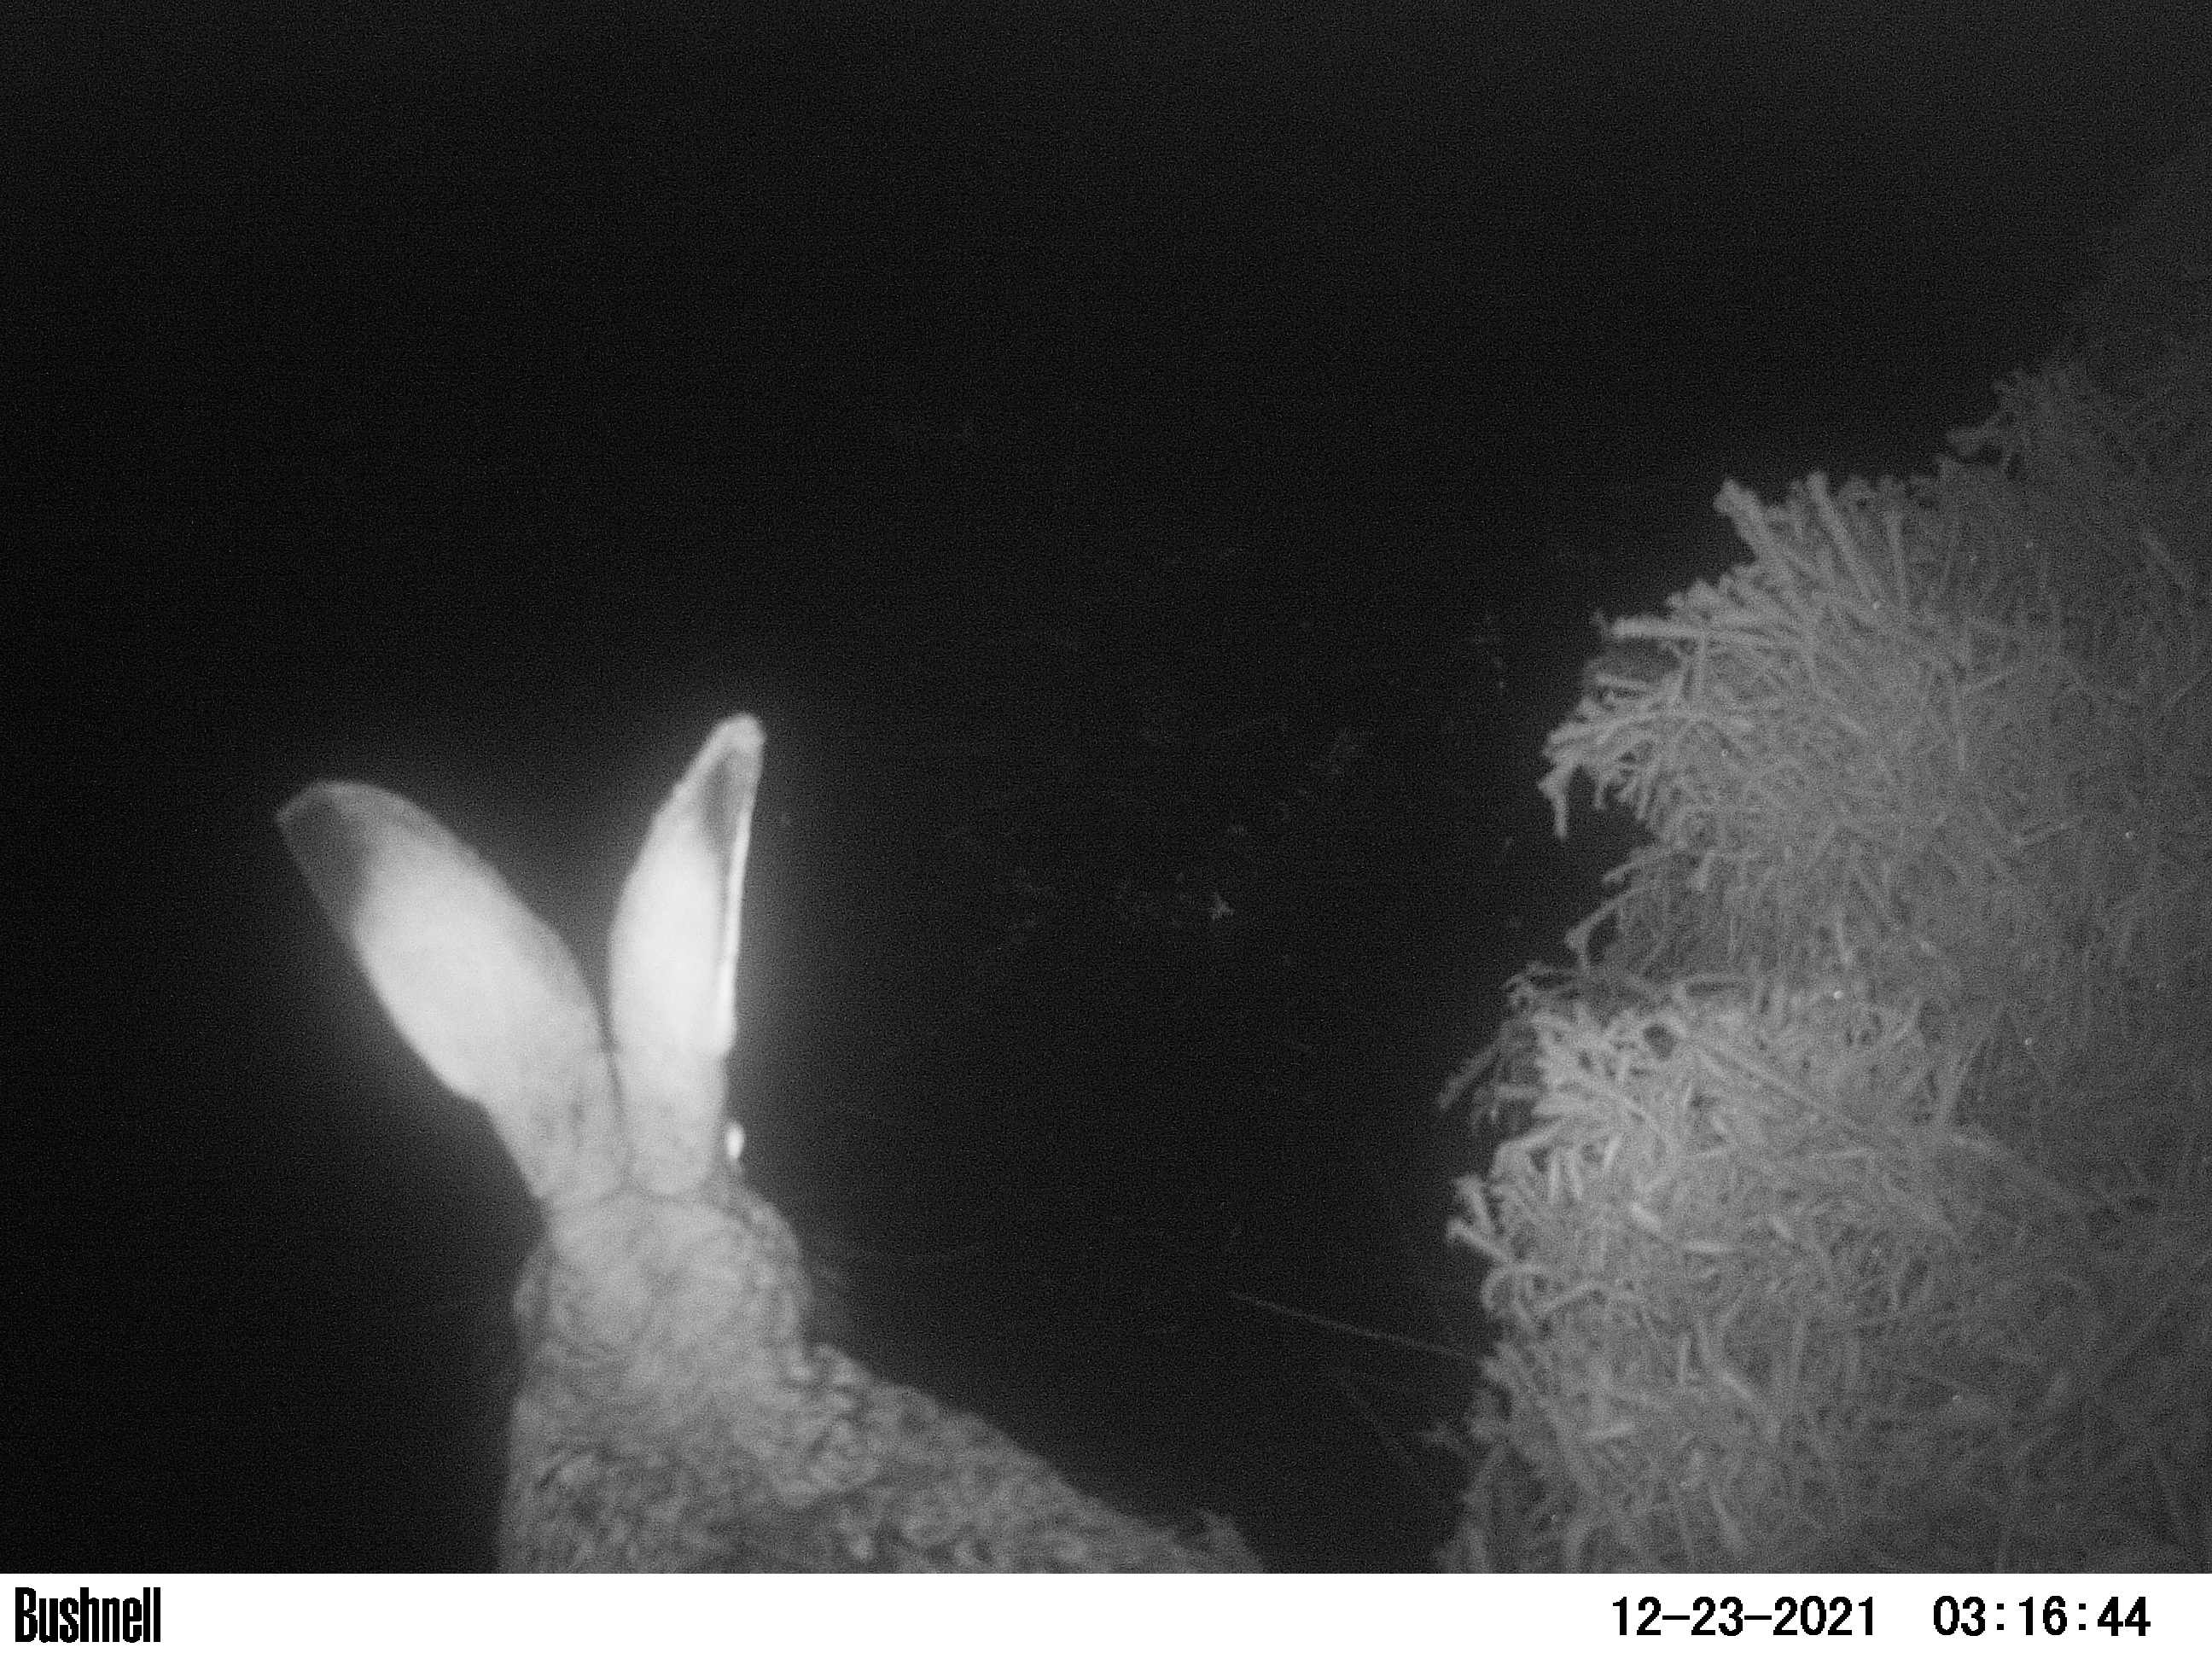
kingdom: Animalia
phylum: Chordata
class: Mammalia
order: Lagomorpha
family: Leporidae
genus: Lepus
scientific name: Lepus europaeus
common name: European hare
